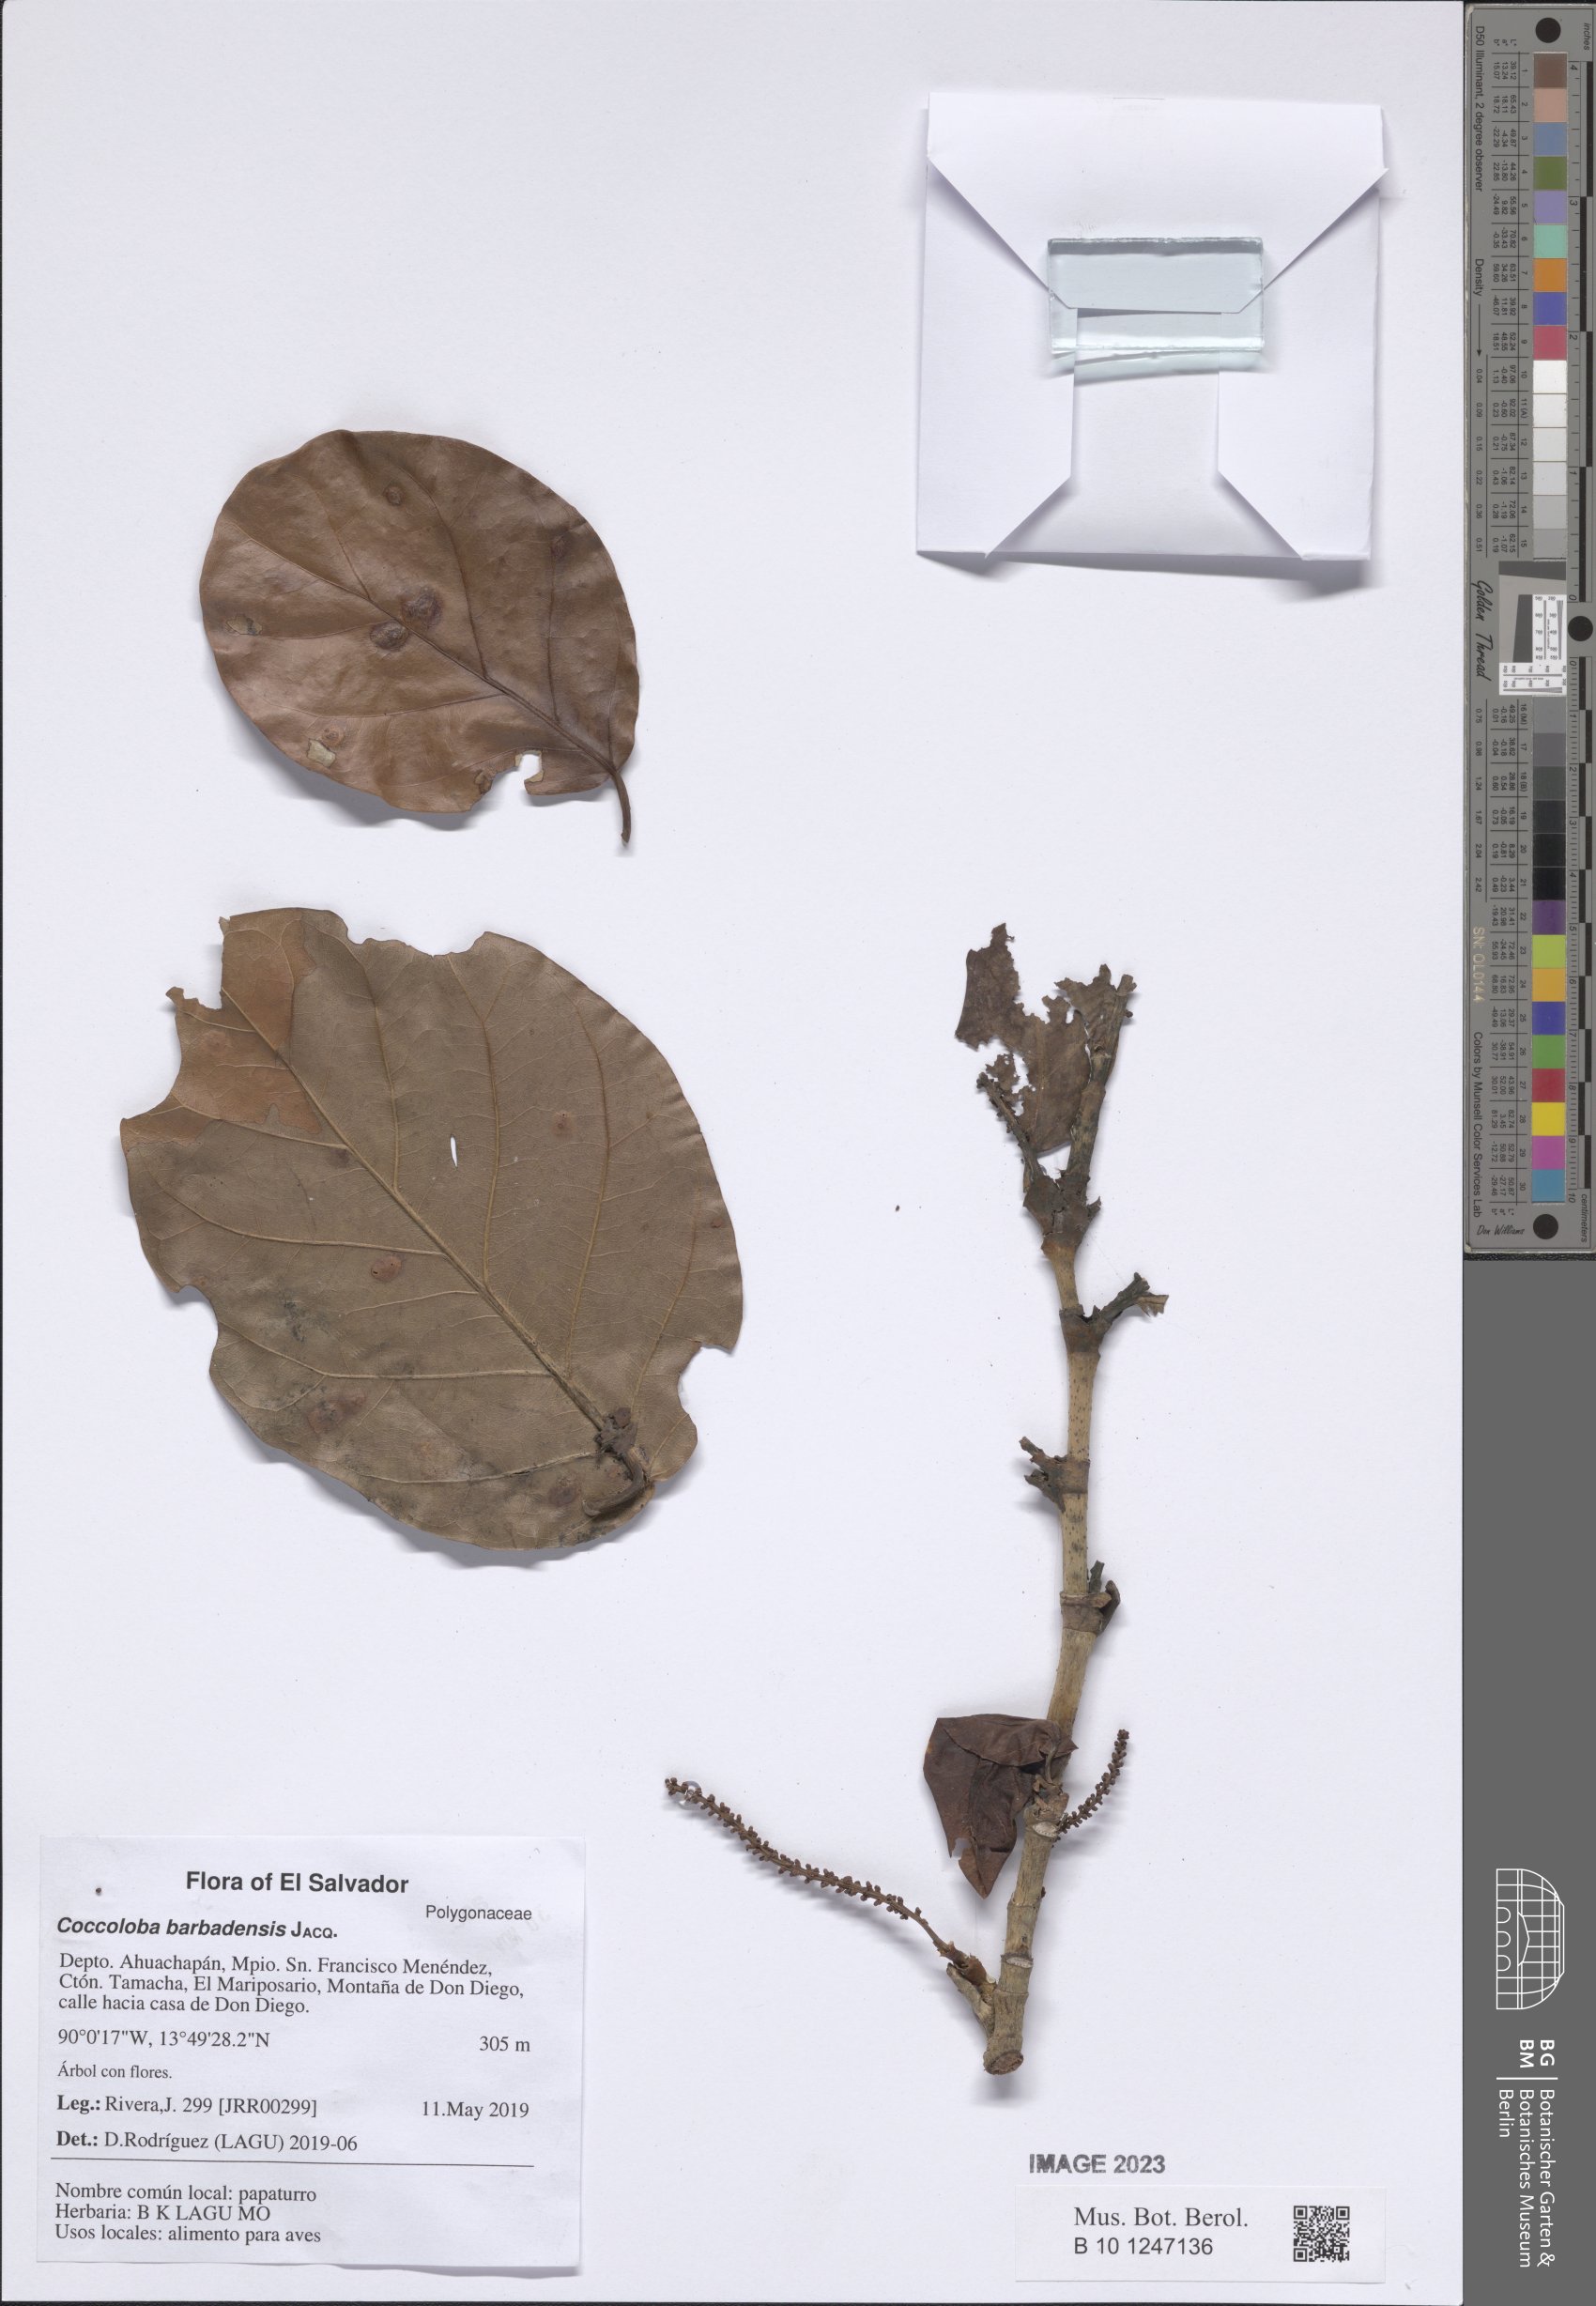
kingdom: Plantae
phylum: Tracheophyta
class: Magnoliopsida
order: Caryophyllales
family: Polygonaceae
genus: Coccoloba
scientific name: Coccoloba barbadensis
